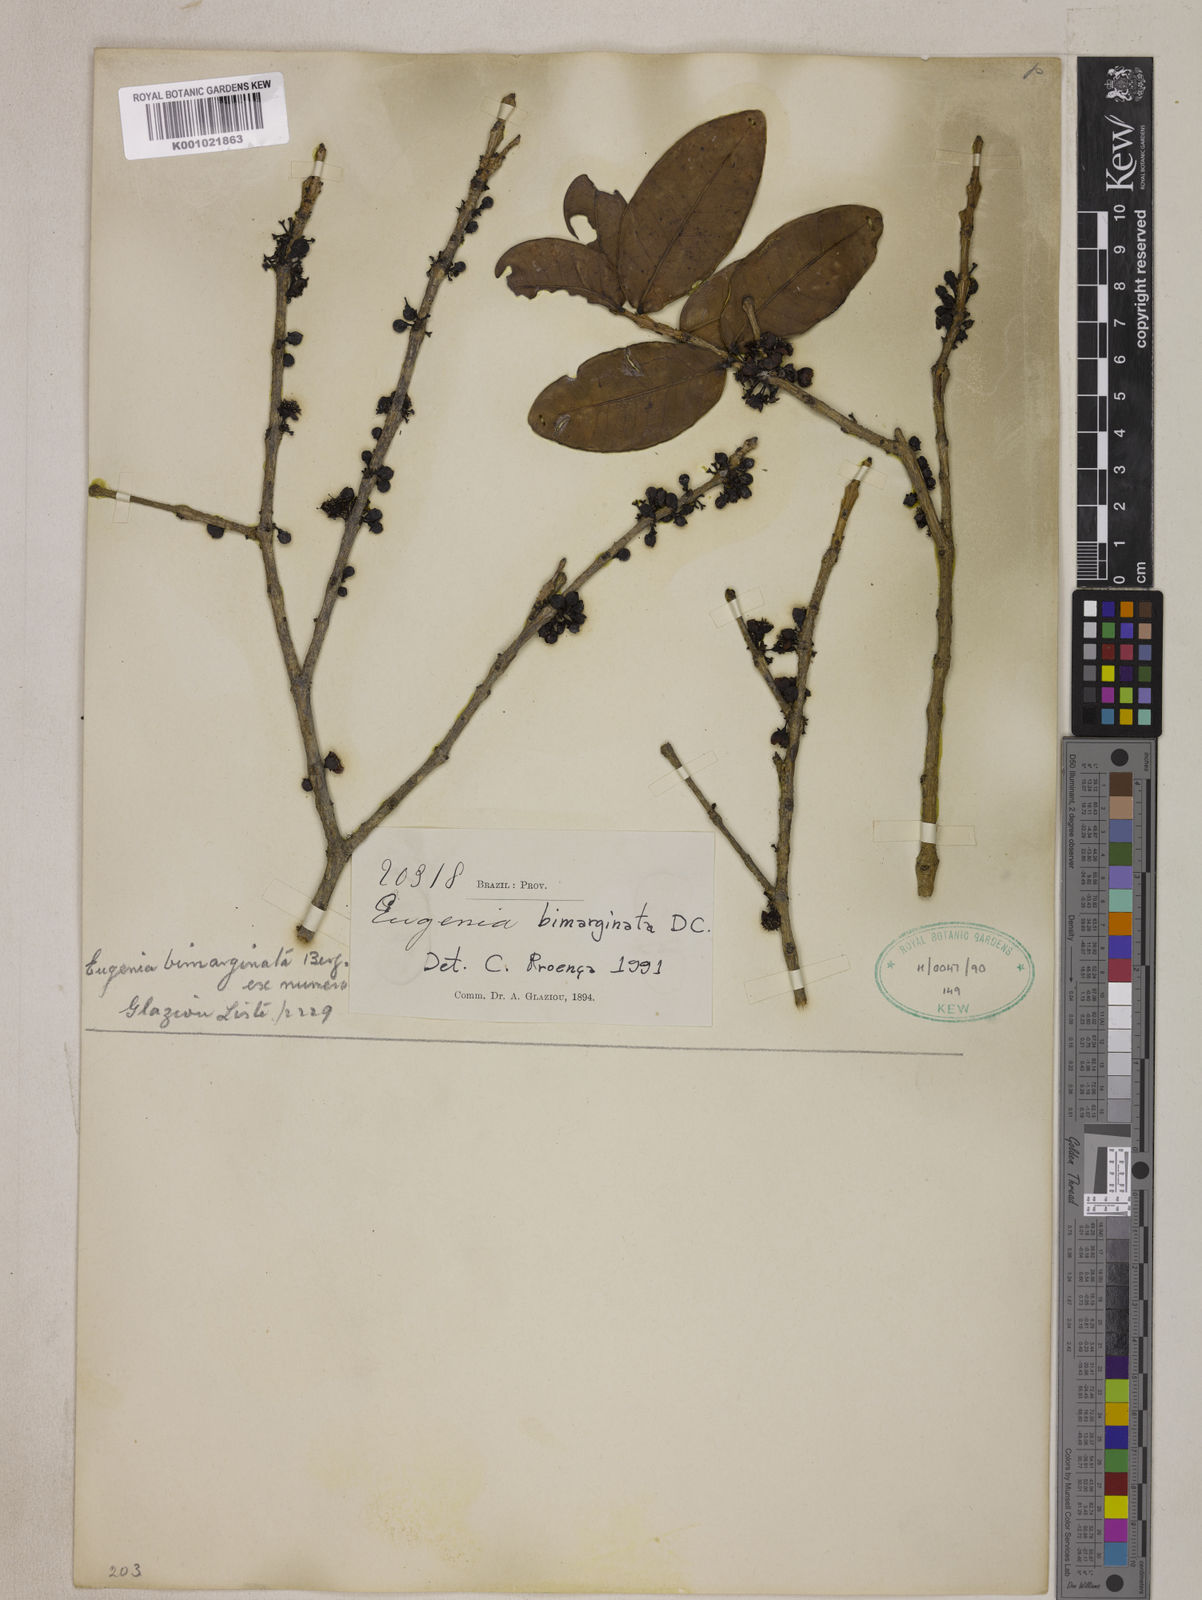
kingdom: Plantae
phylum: Tracheophyta
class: Magnoliopsida
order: Myrtales
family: Myrtaceae
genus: Eugenia
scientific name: Eugenia bimarginata
